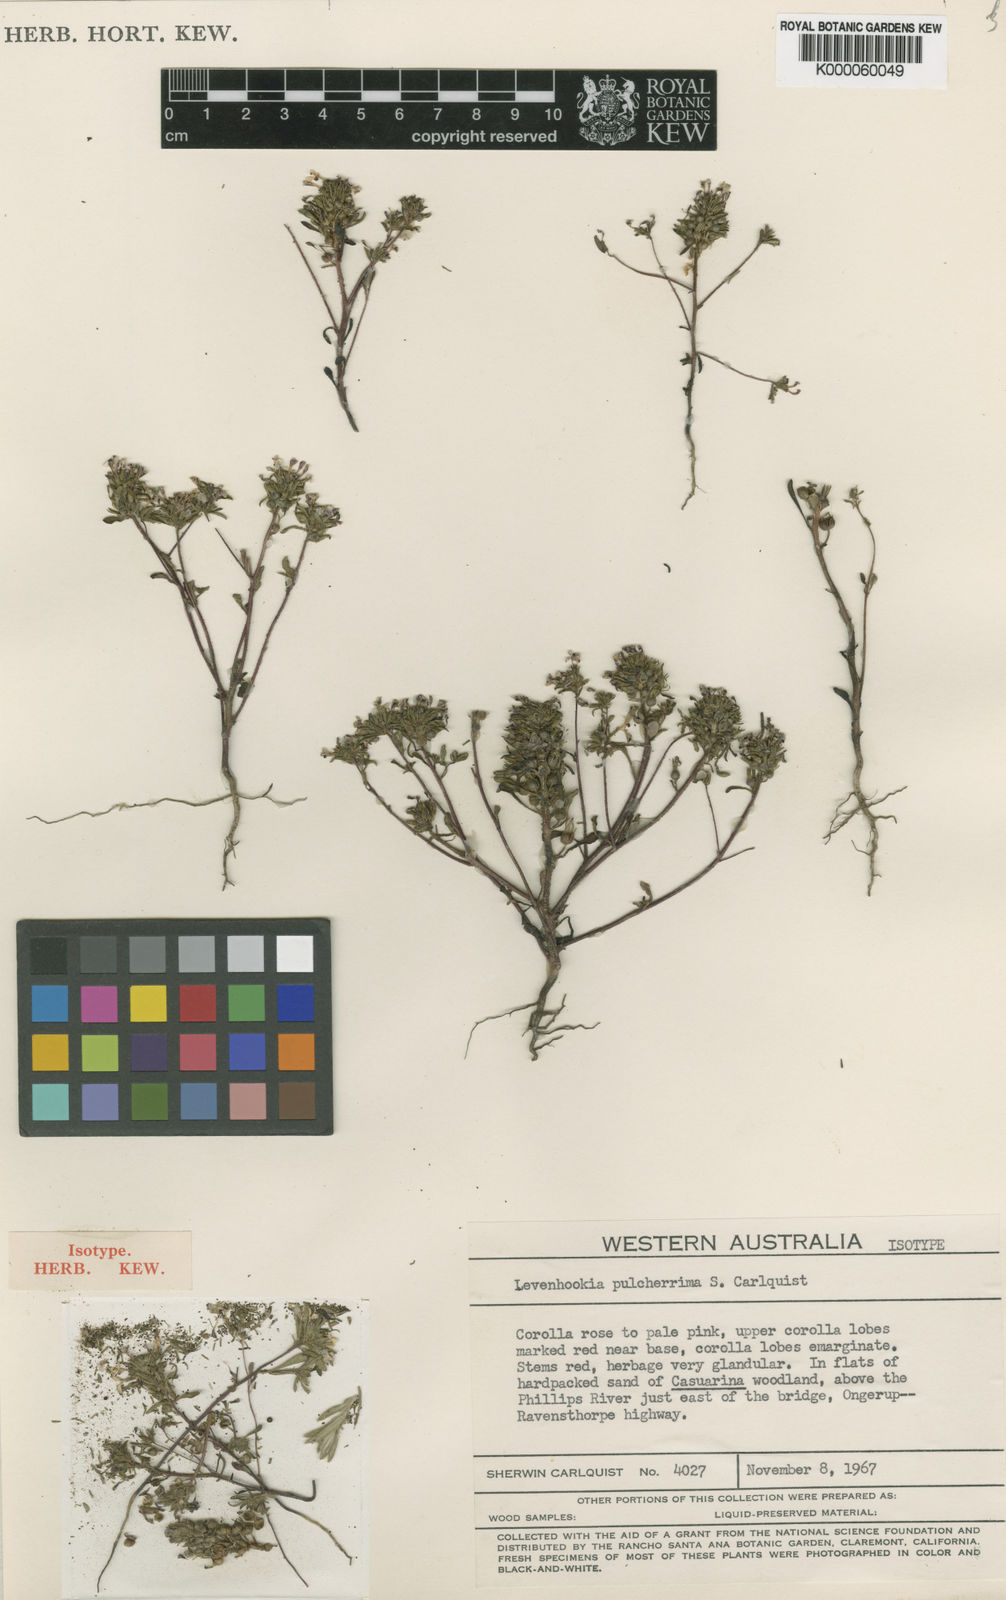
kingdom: Plantae
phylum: Tracheophyta
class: Magnoliopsida
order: Asterales
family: Stylidiaceae
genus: Levenhookia
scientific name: Levenhookia pulcherrima
